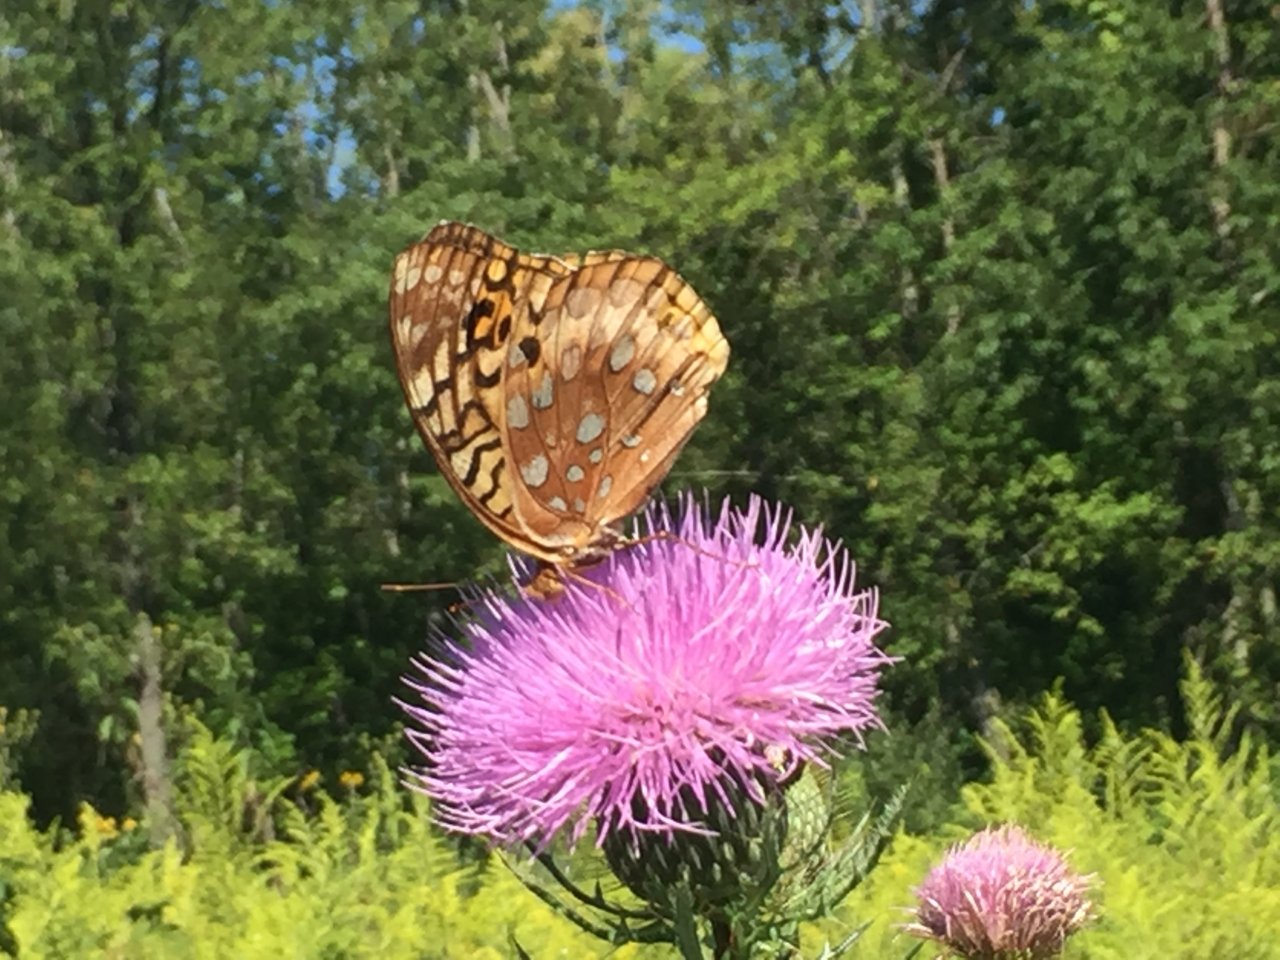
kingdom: Animalia
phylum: Arthropoda
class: Insecta
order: Lepidoptera
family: Nymphalidae
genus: Speyeria
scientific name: Speyeria cybele
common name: Great Spangled Fritillary
